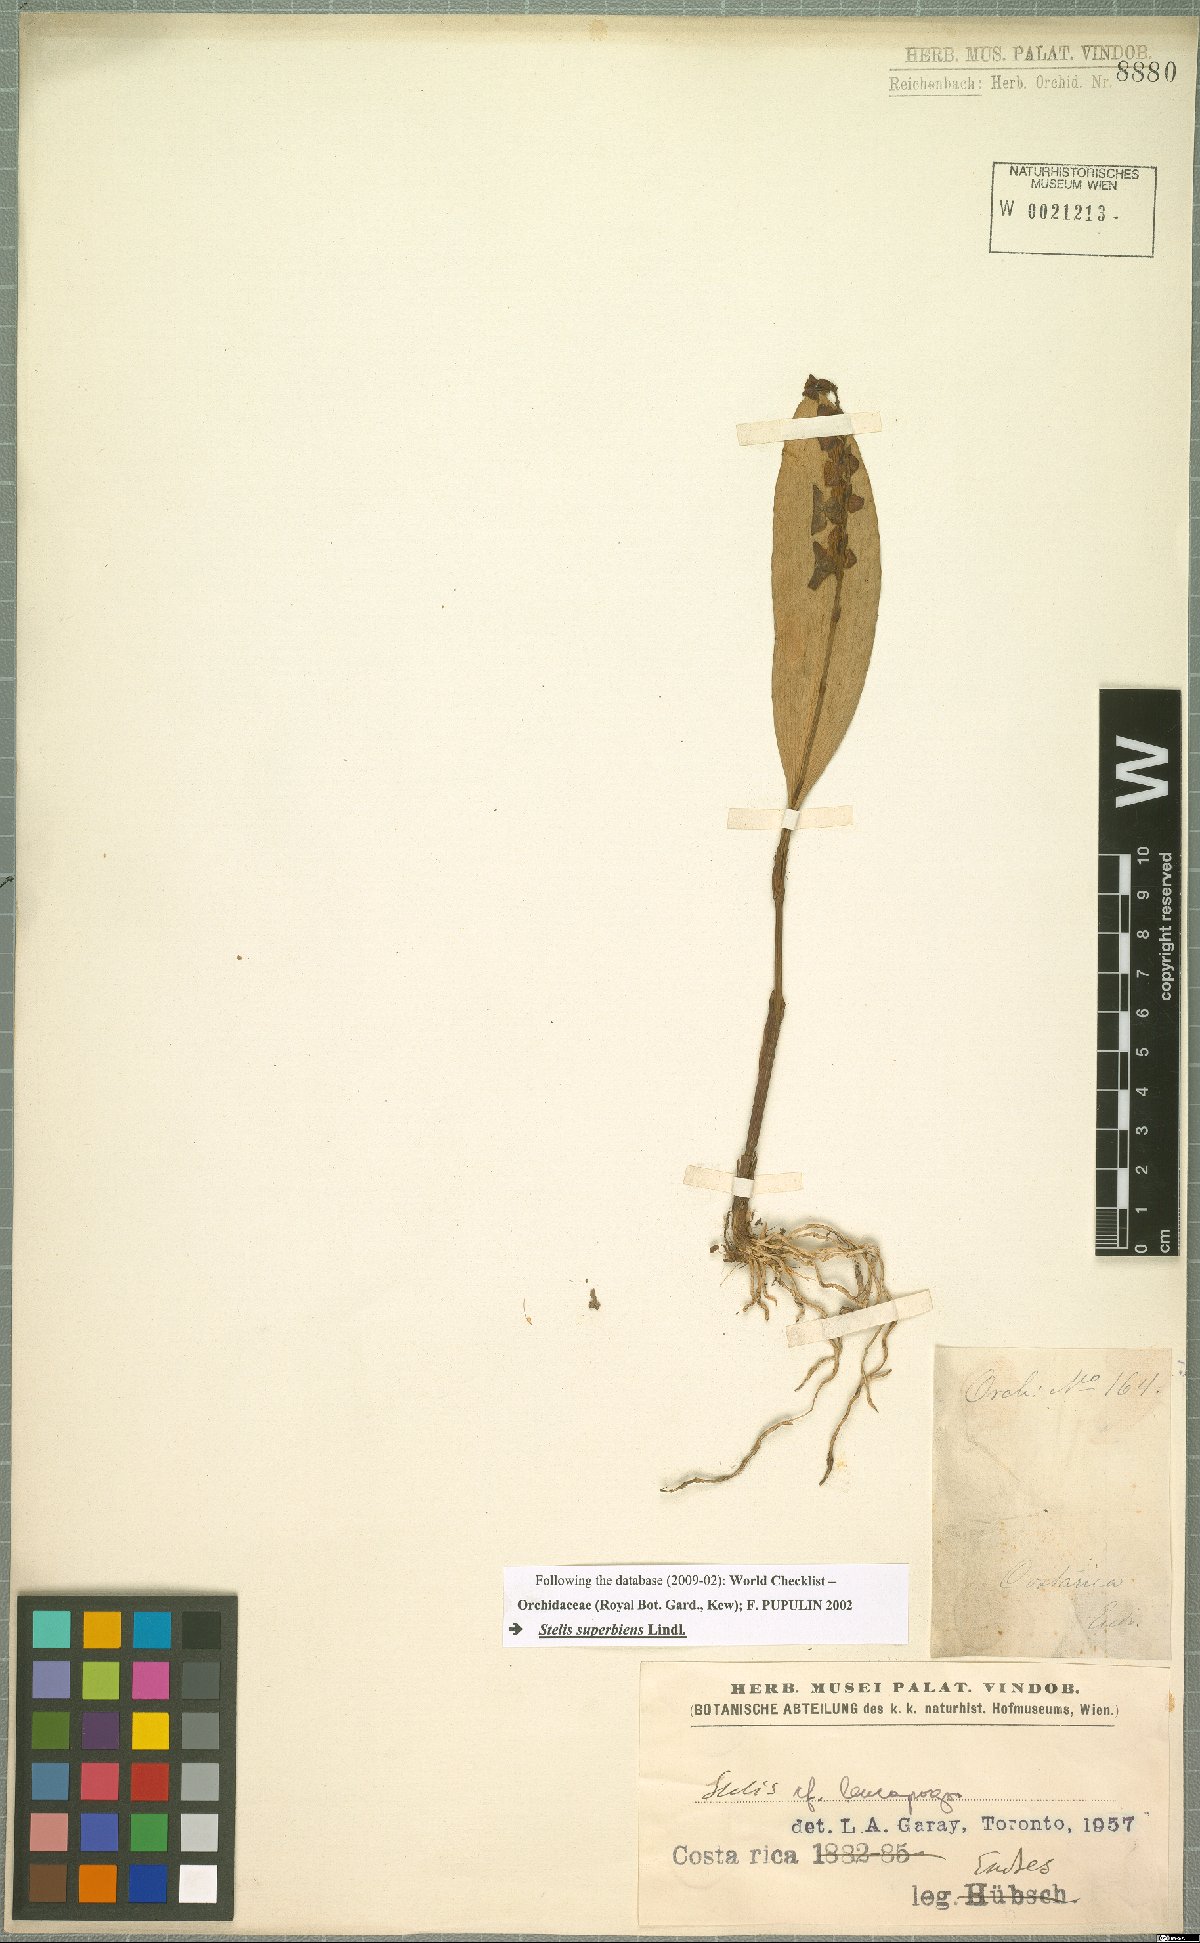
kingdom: Plantae
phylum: Tracheophyta
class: Liliopsida
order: Asparagales
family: Orchidaceae
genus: Stelis
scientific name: Stelis superbiens
